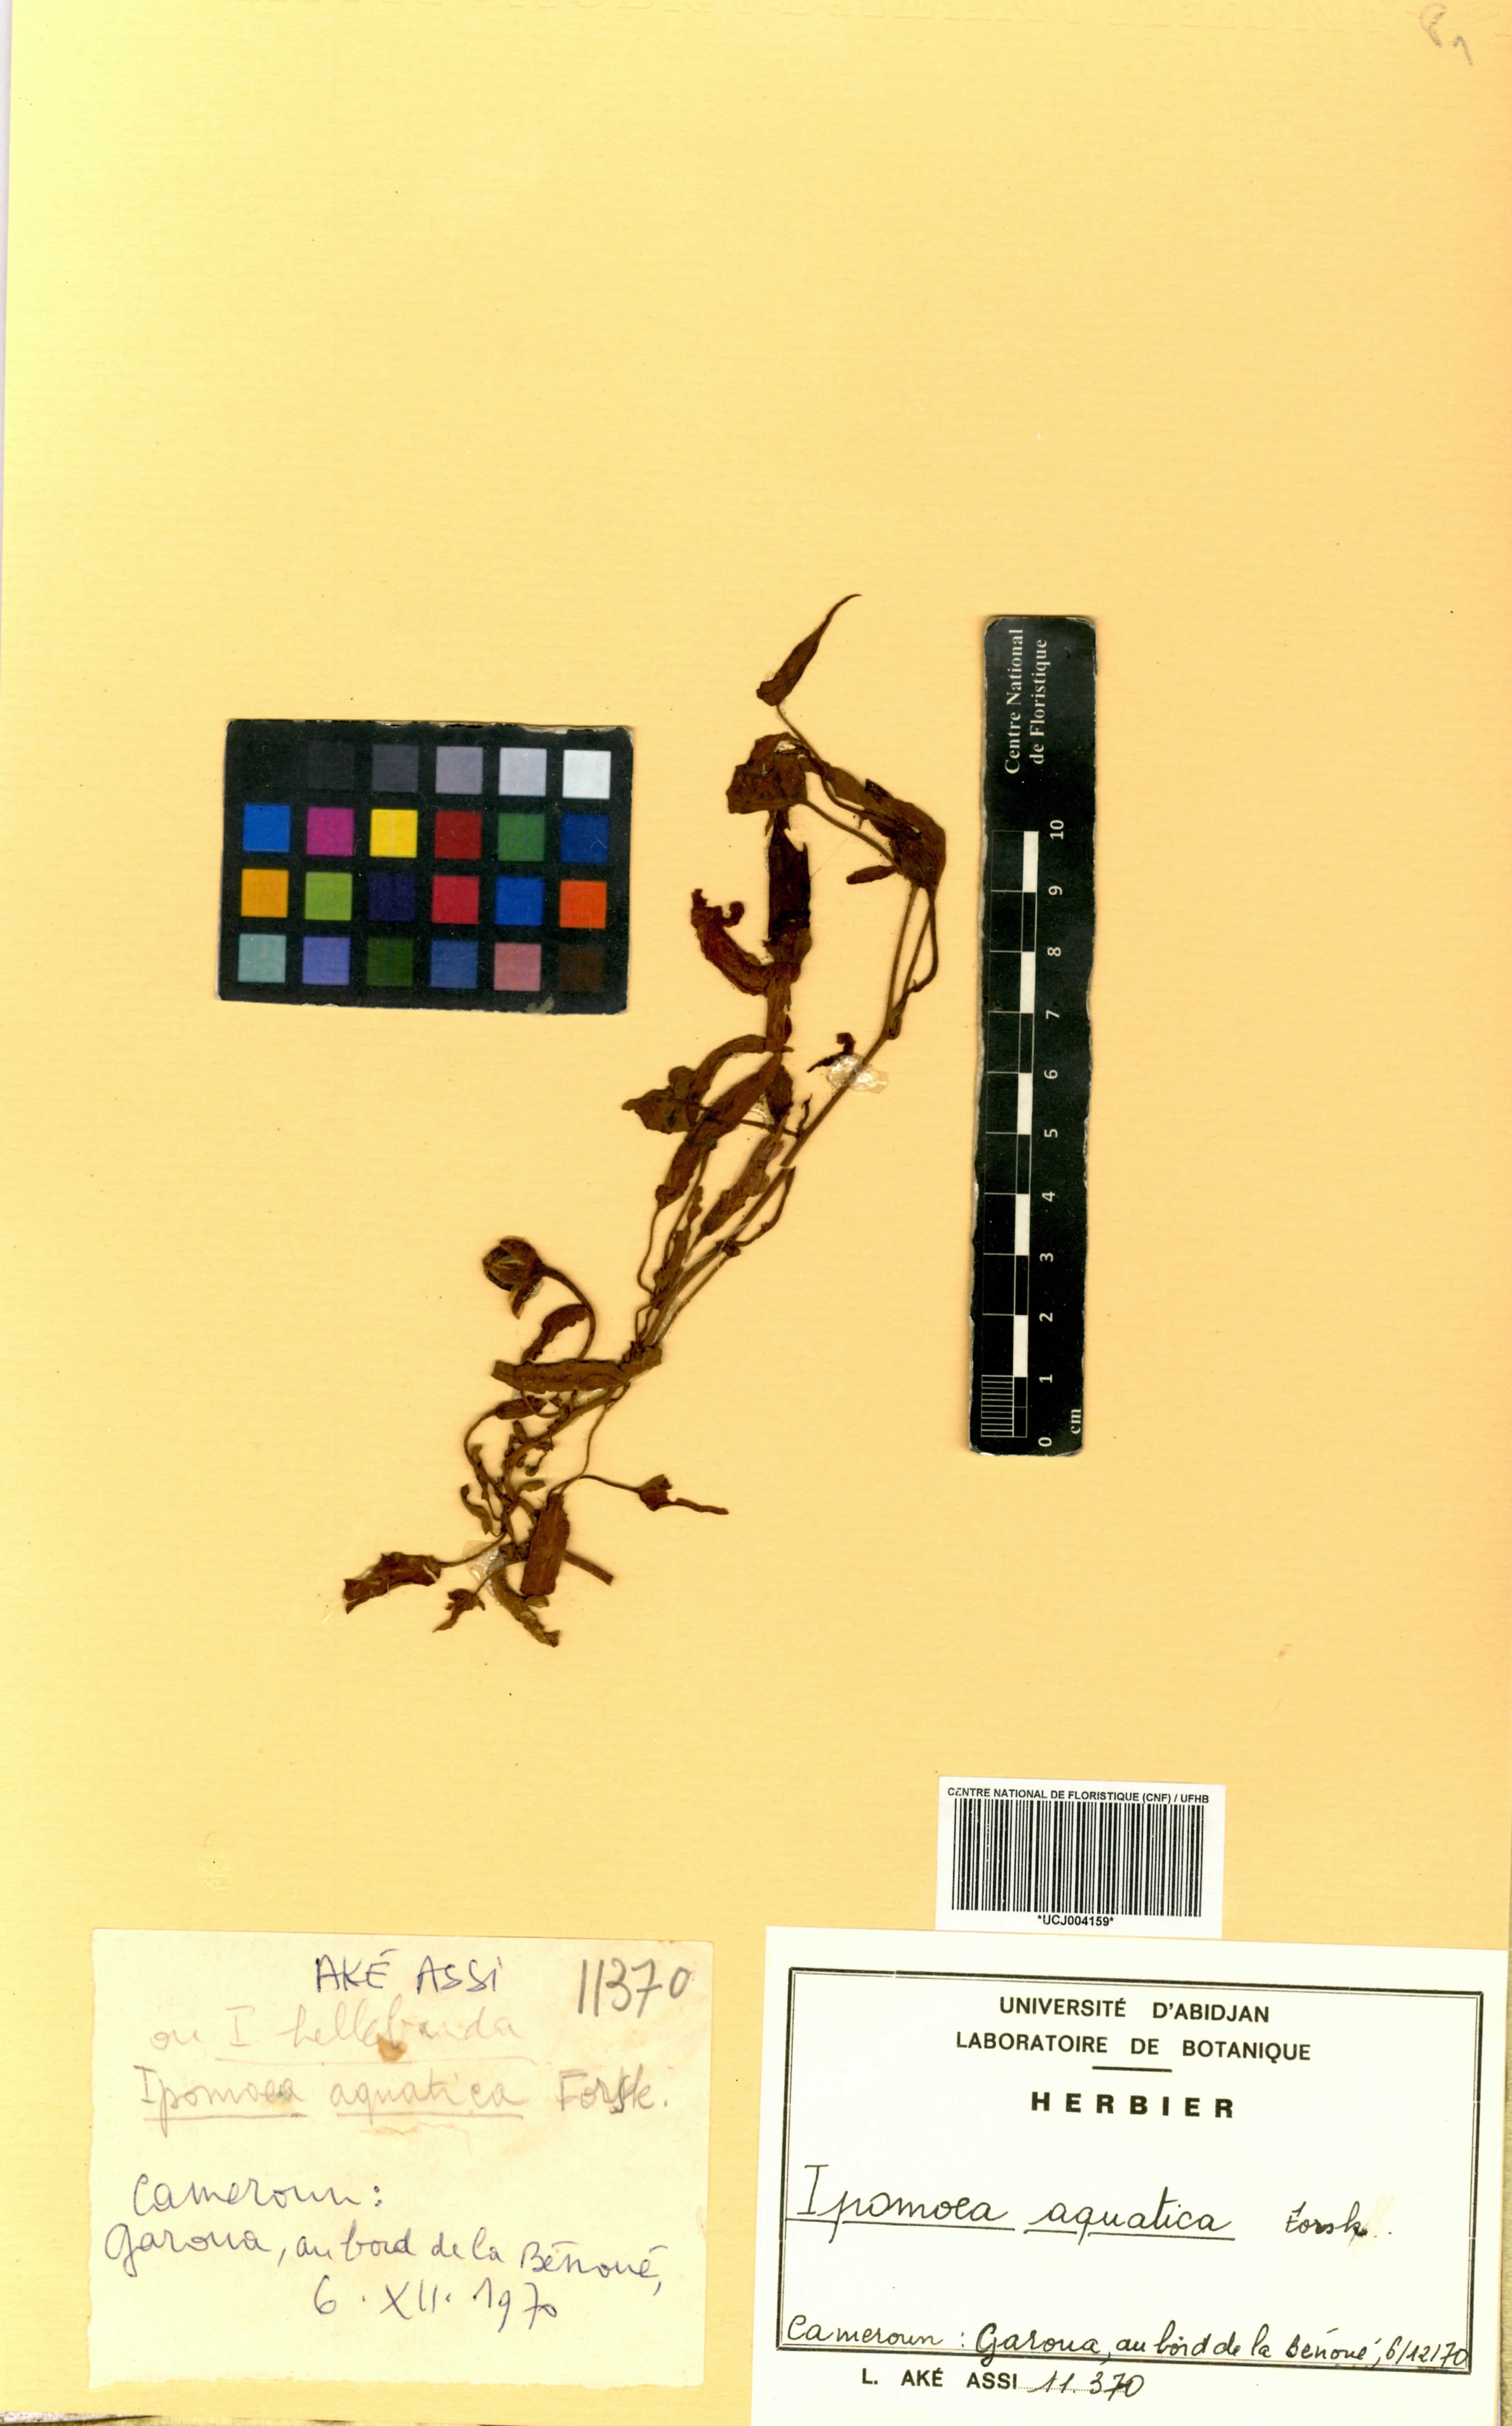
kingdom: Plantae
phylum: Tracheophyta
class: Magnoliopsida
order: Solanales
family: Convolvulaceae
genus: Ipomoea
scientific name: Ipomoea aquatica
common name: Swamp morning-glory
